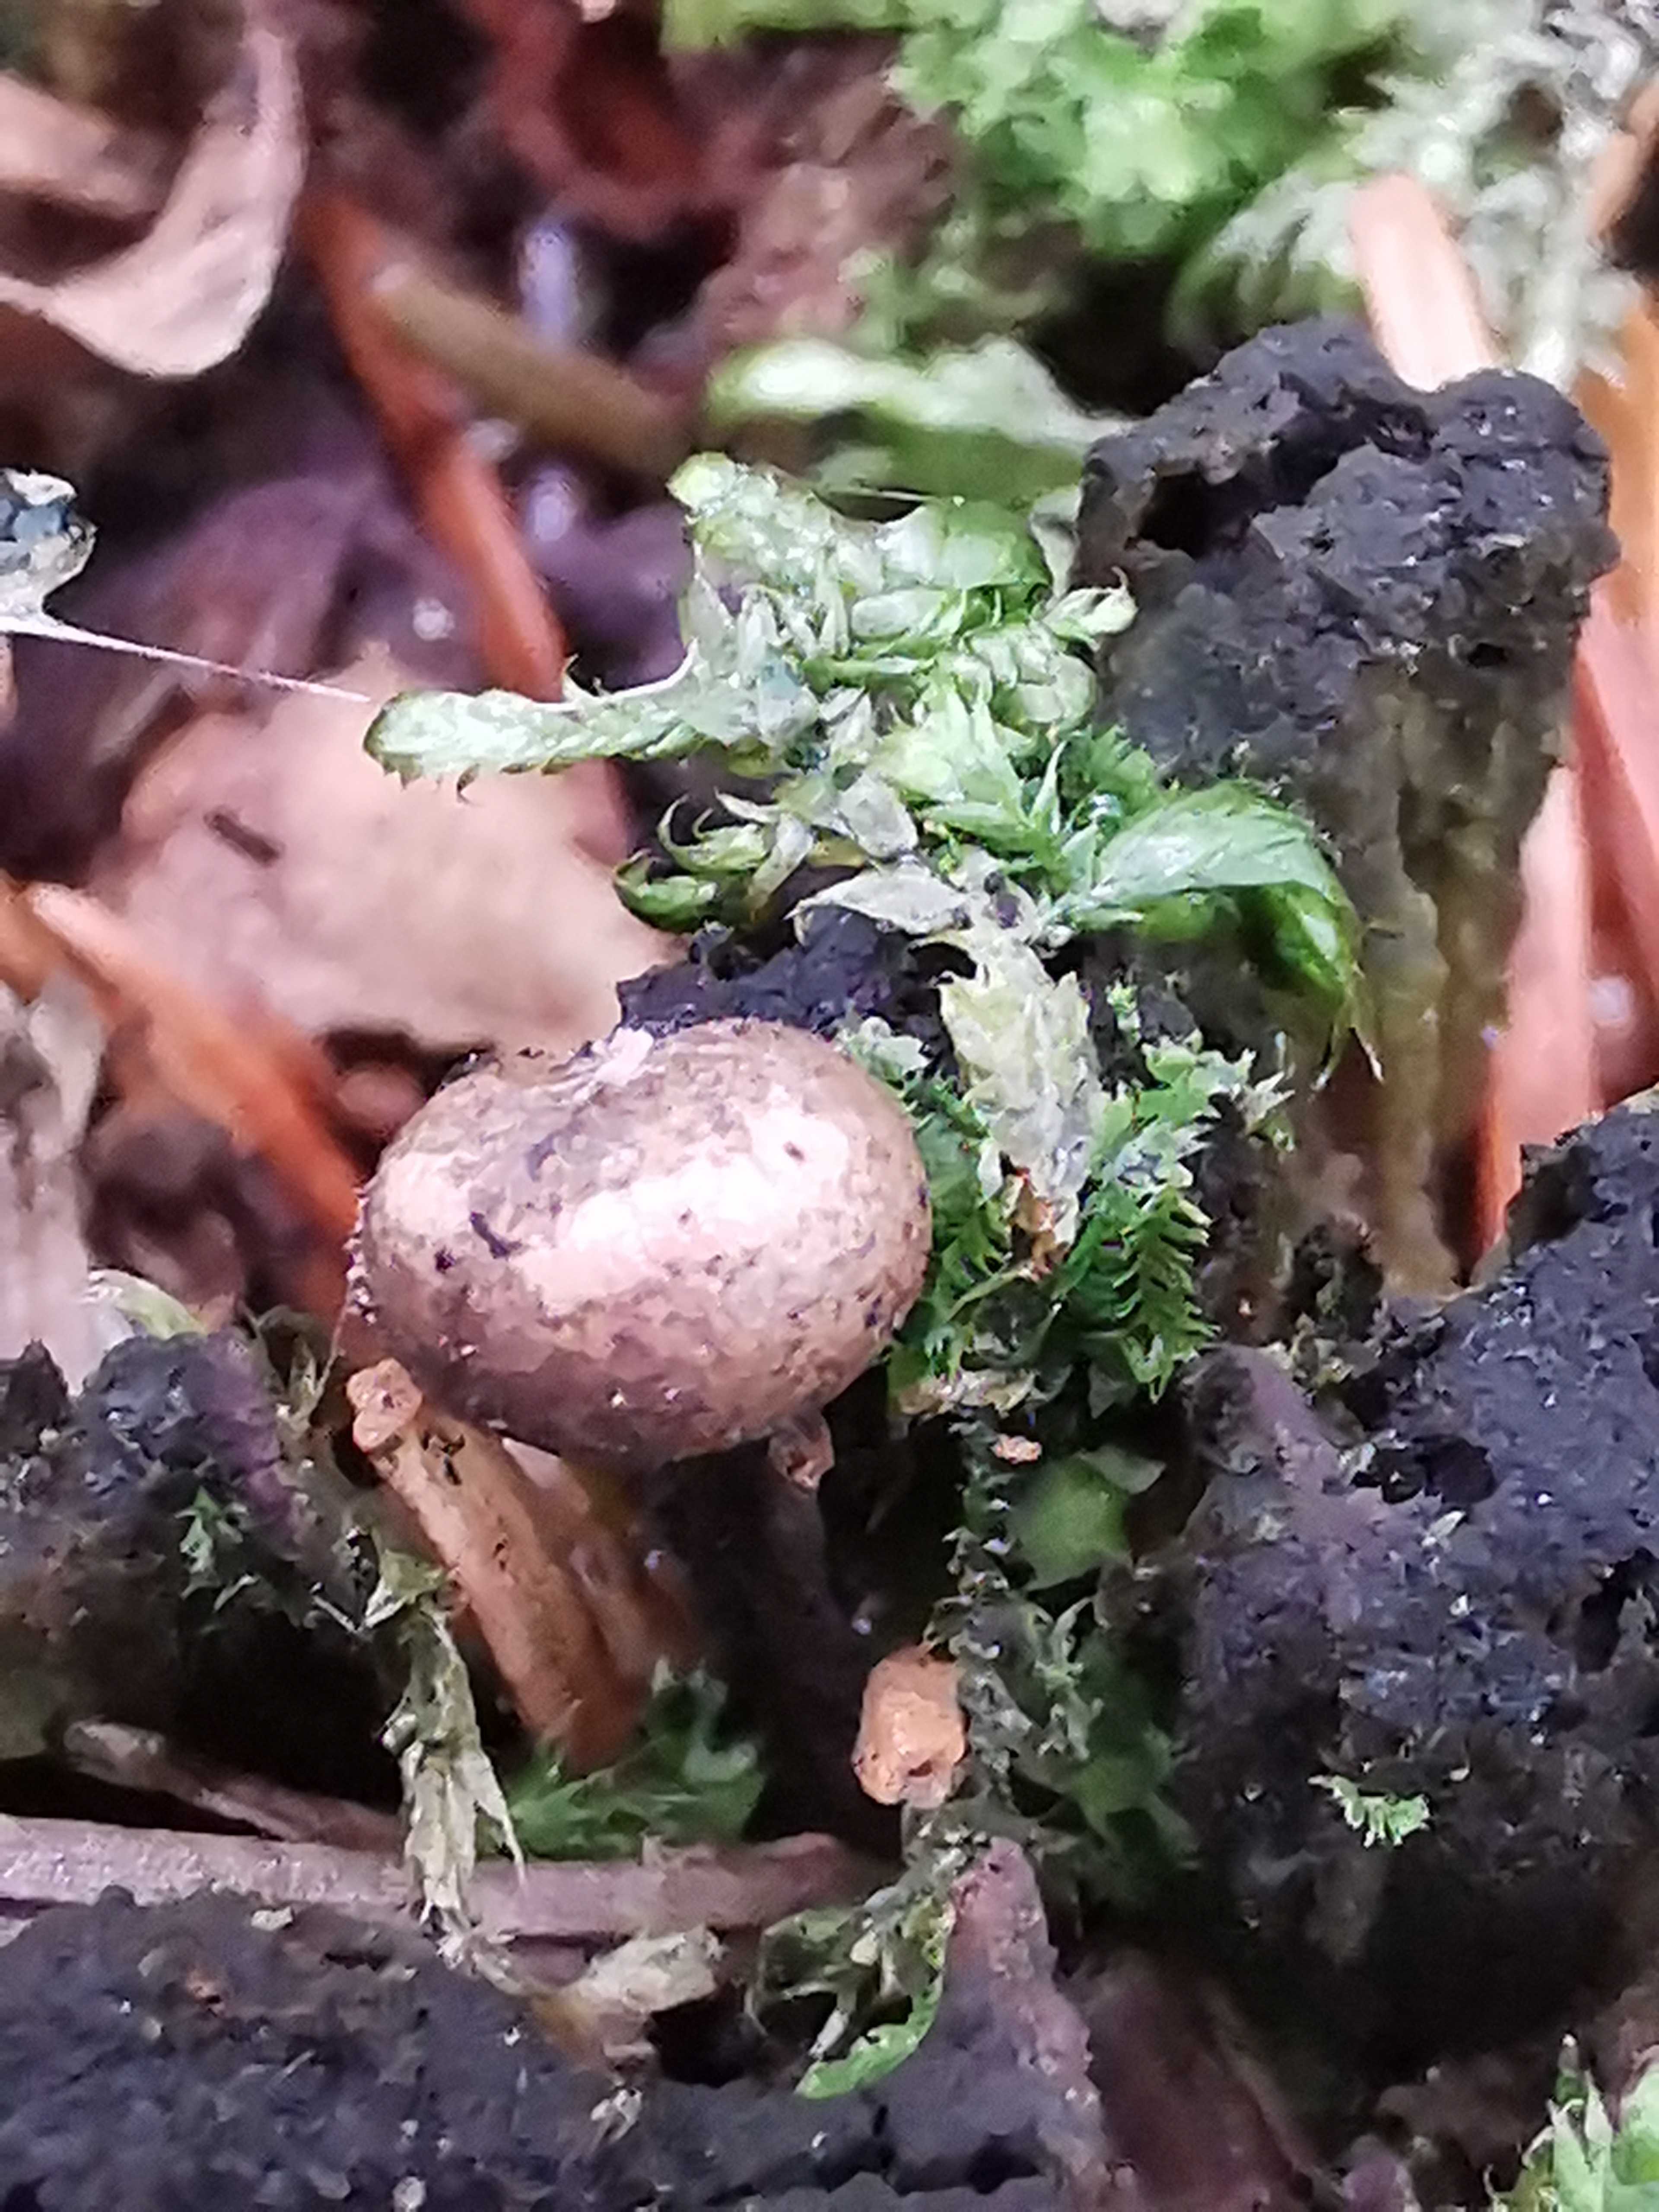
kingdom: Protozoa
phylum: Mycetozoa
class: Myxomycetes
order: Cribrariales
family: Tubiferaceae
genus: Lycogala
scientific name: Lycogala epidendrum
